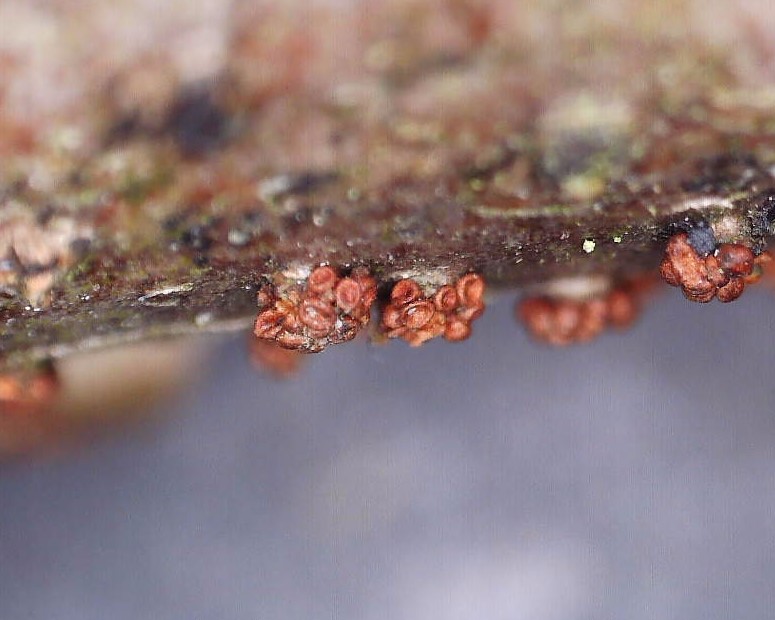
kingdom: Fungi
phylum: Ascomycota
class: Sordariomycetes
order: Hypocreales
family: Nectriaceae
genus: Neonectria
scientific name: Neonectria coccinea
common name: bøgebark-cinnobersvamp
